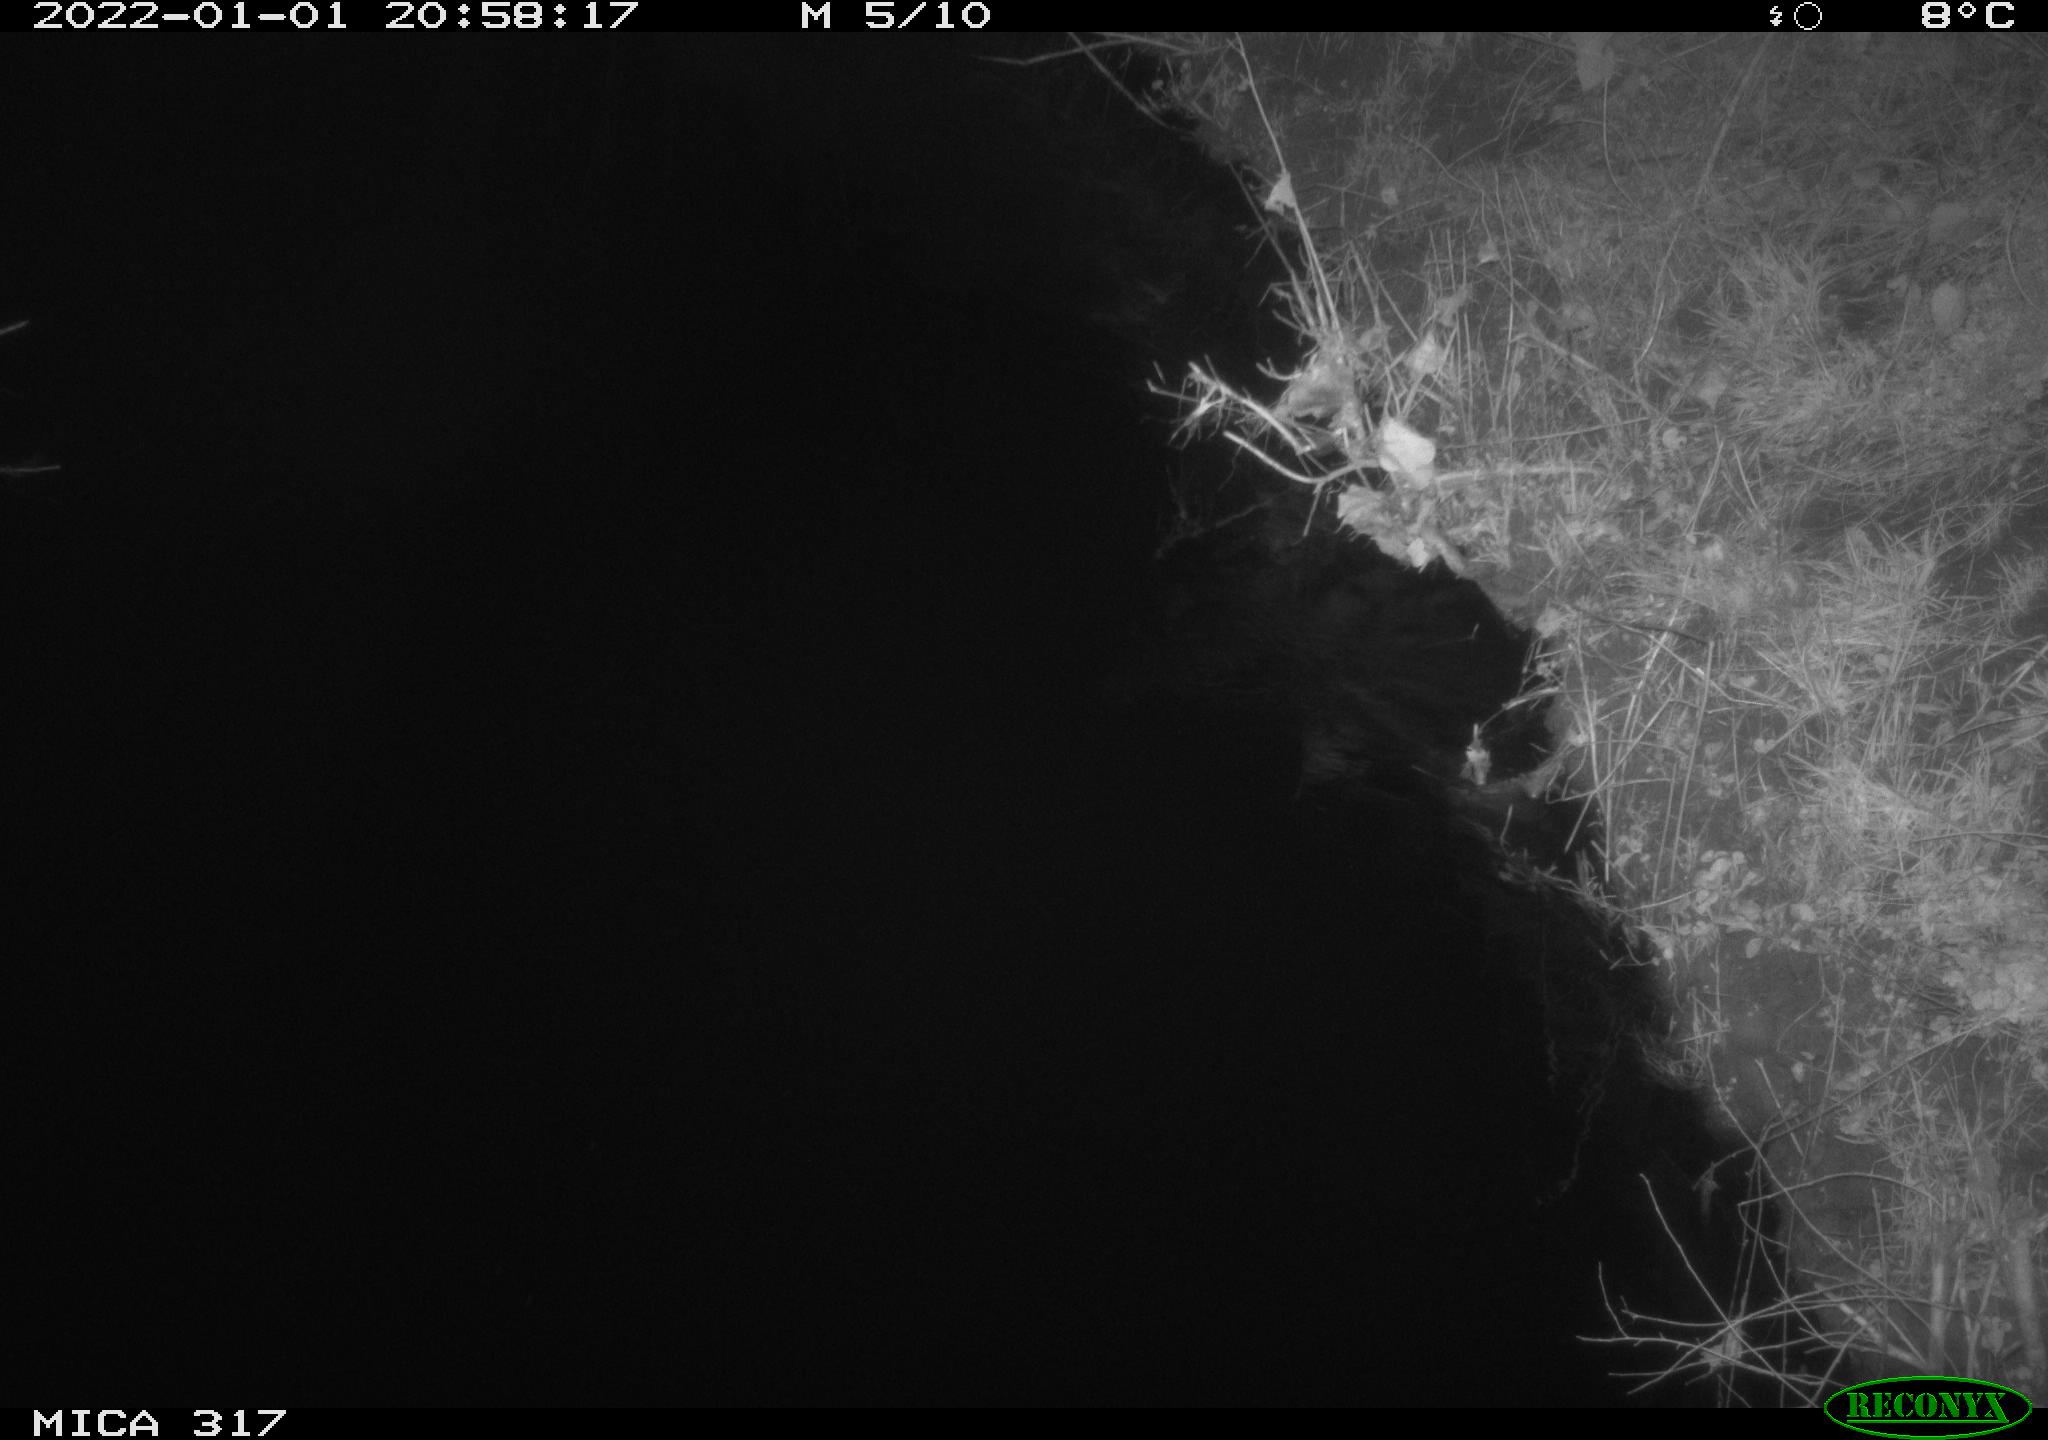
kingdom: Animalia
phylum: Chordata
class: Mammalia
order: Rodentia
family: Muridae
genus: Rattus
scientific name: Rattus norvegicus
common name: Brown rat
